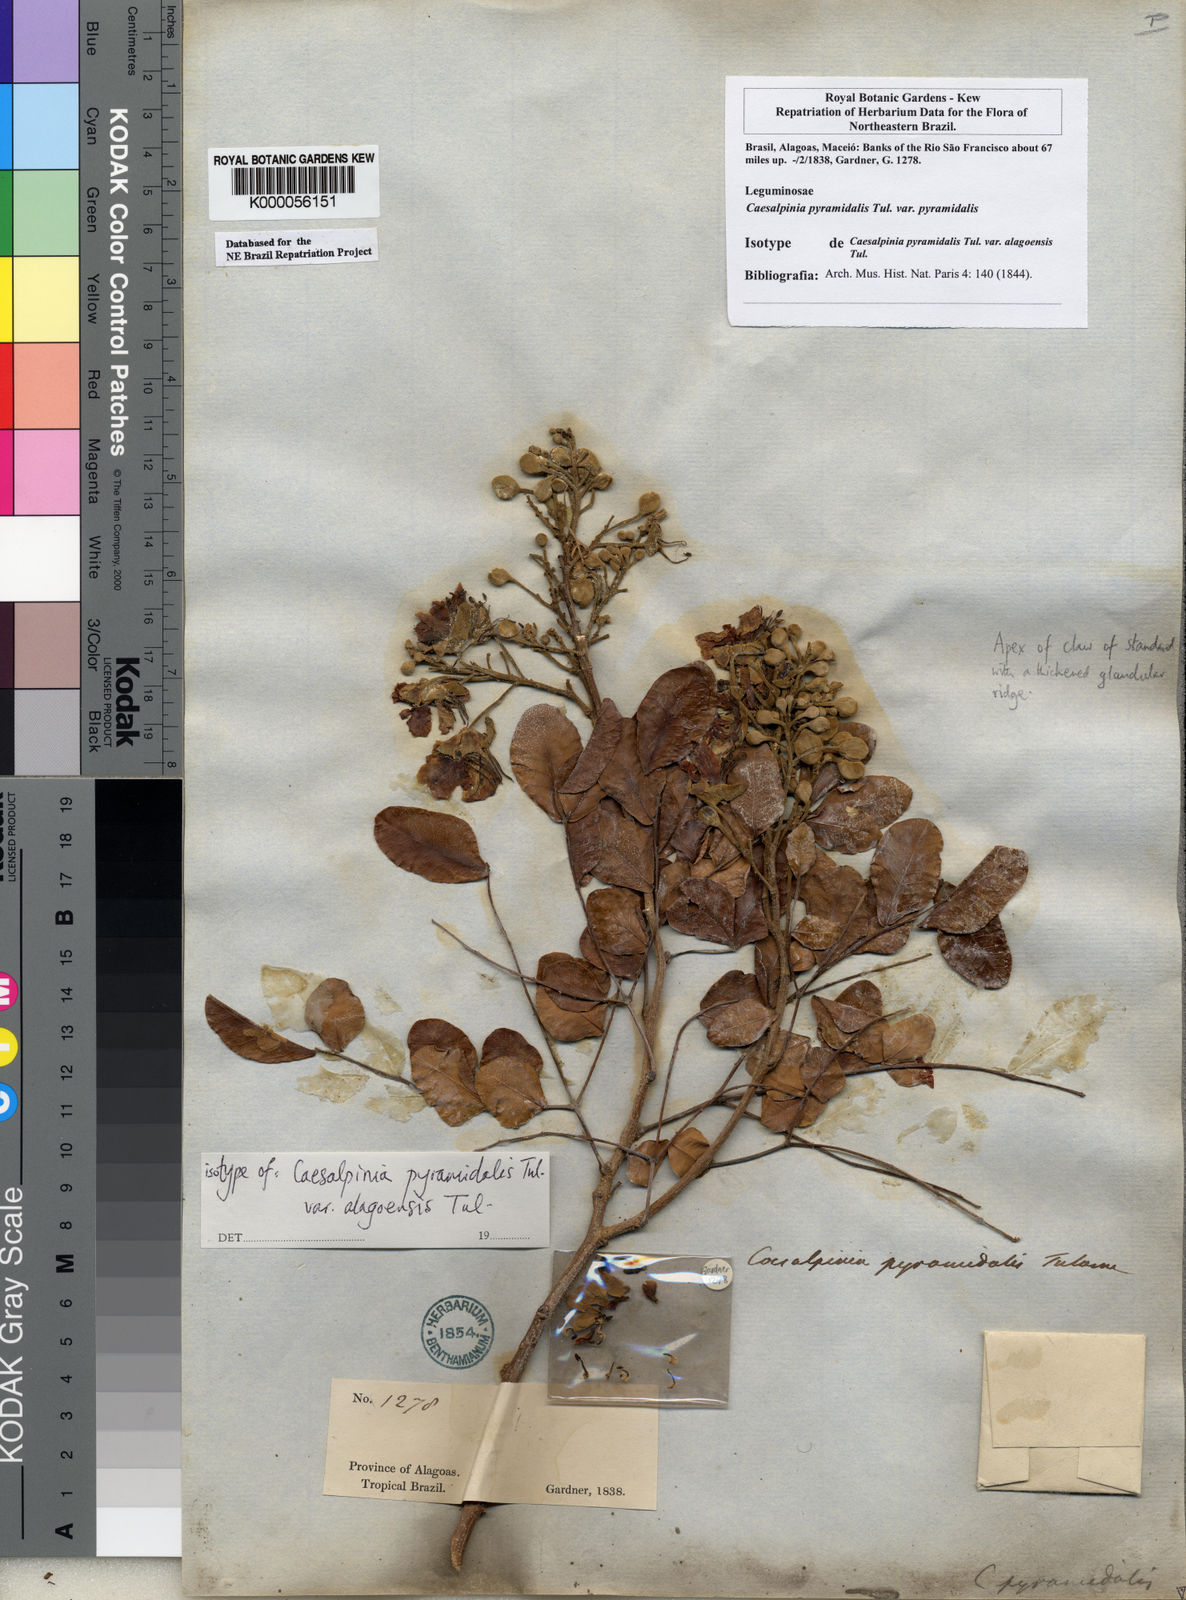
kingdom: Plantae
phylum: Tracheophyta
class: Magnoliopsida
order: Fabales
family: Fabaceae
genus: Cenostigma
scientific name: Cenostigma pyramidale
